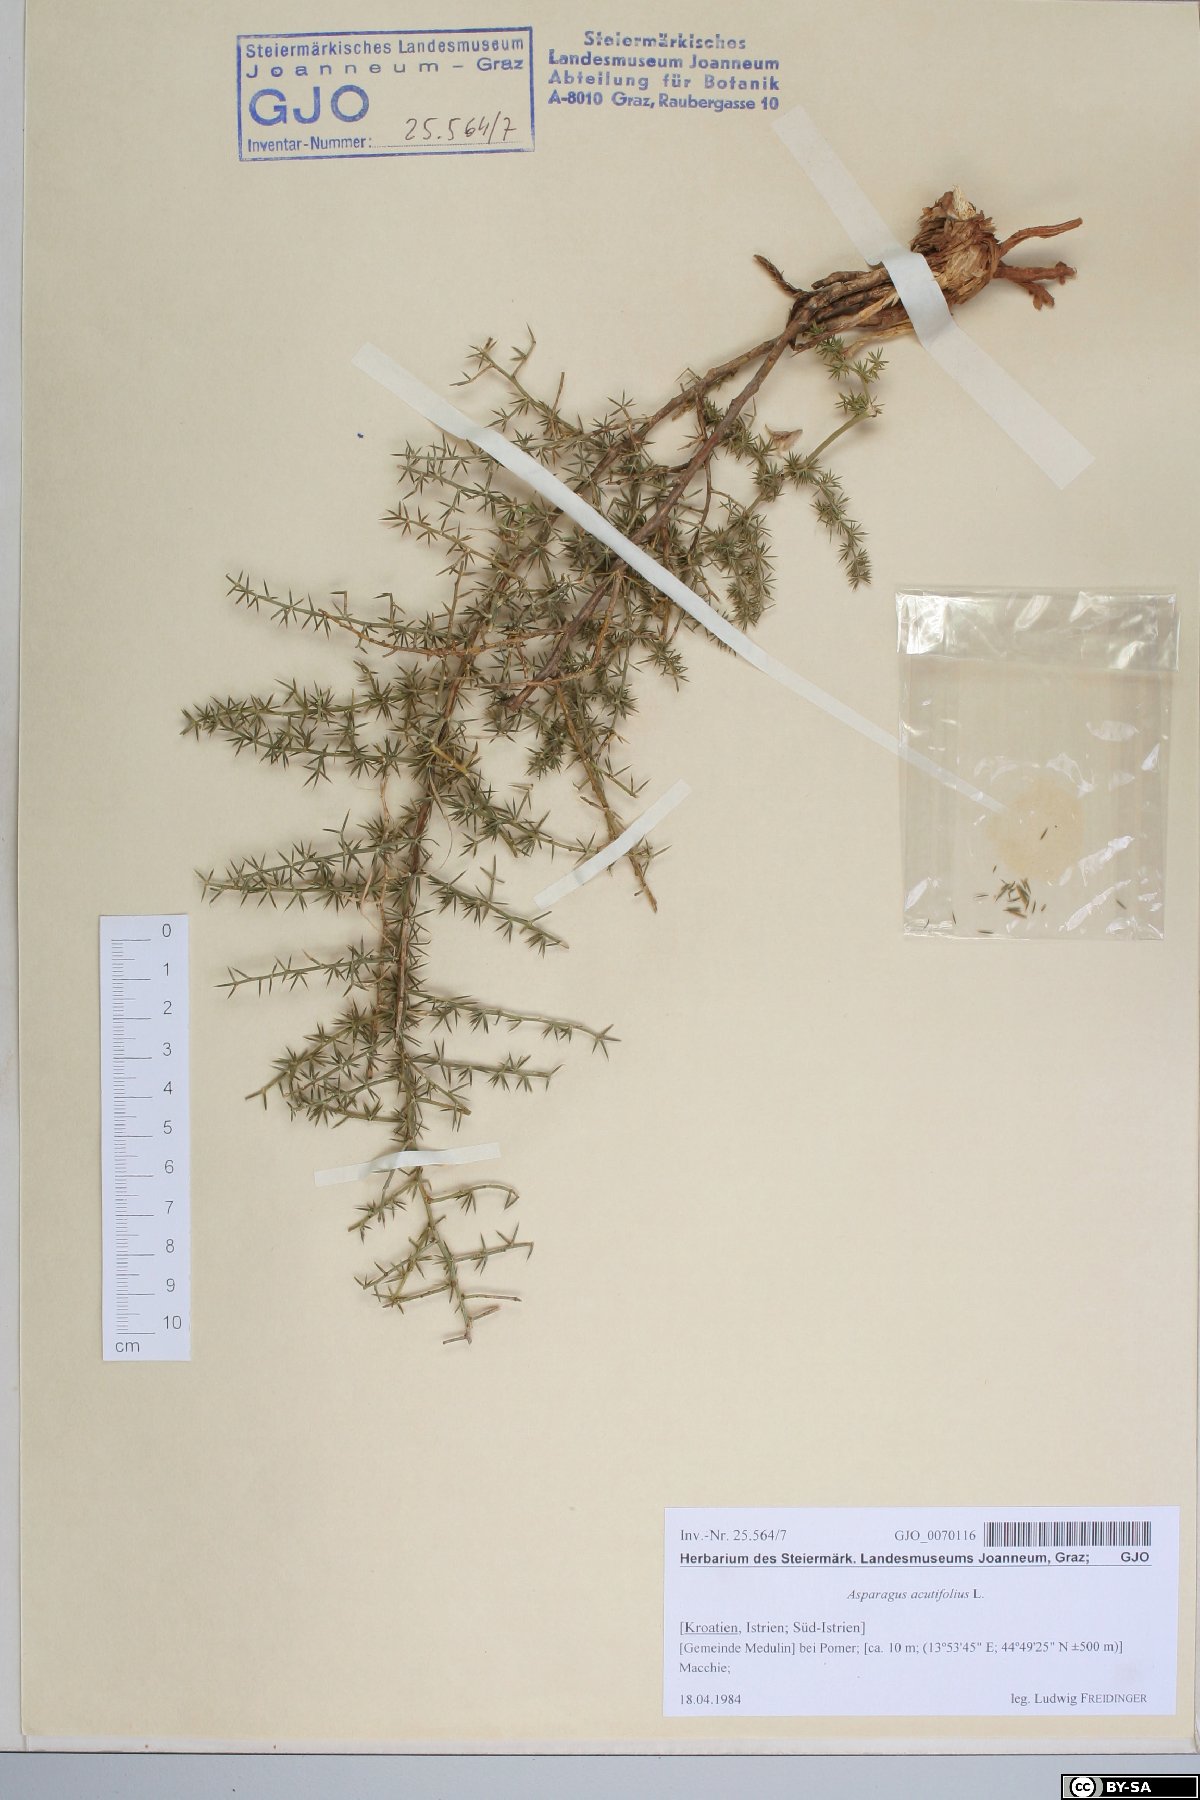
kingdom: Plantae
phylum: Tracheophyta
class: Liliopsida
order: Asparagales
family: Asparagaceae
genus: Asparagus
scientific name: Asparagus acutifolius
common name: Wild asparagus
